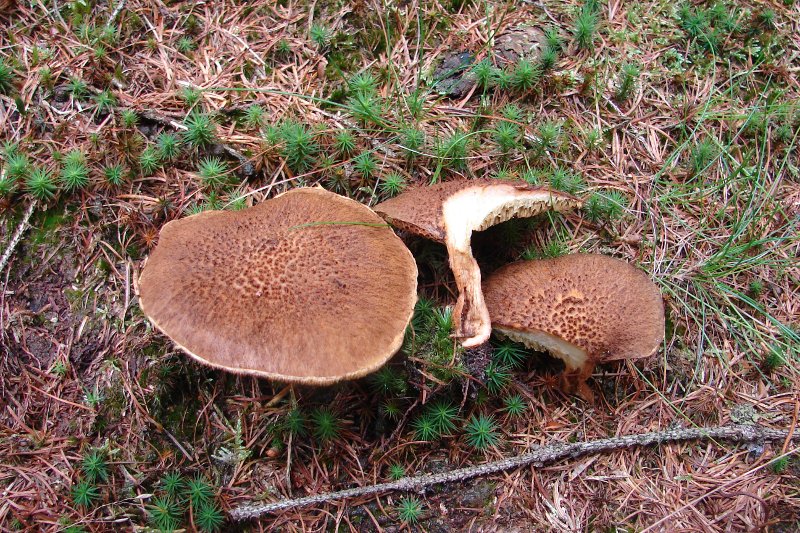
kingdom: Fungi
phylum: Basidiomycota
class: Agaricomycetes
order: Boletales
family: Suillaceae
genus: Suillus
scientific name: Suillus cavipes
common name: hulstokket slimrørhat
